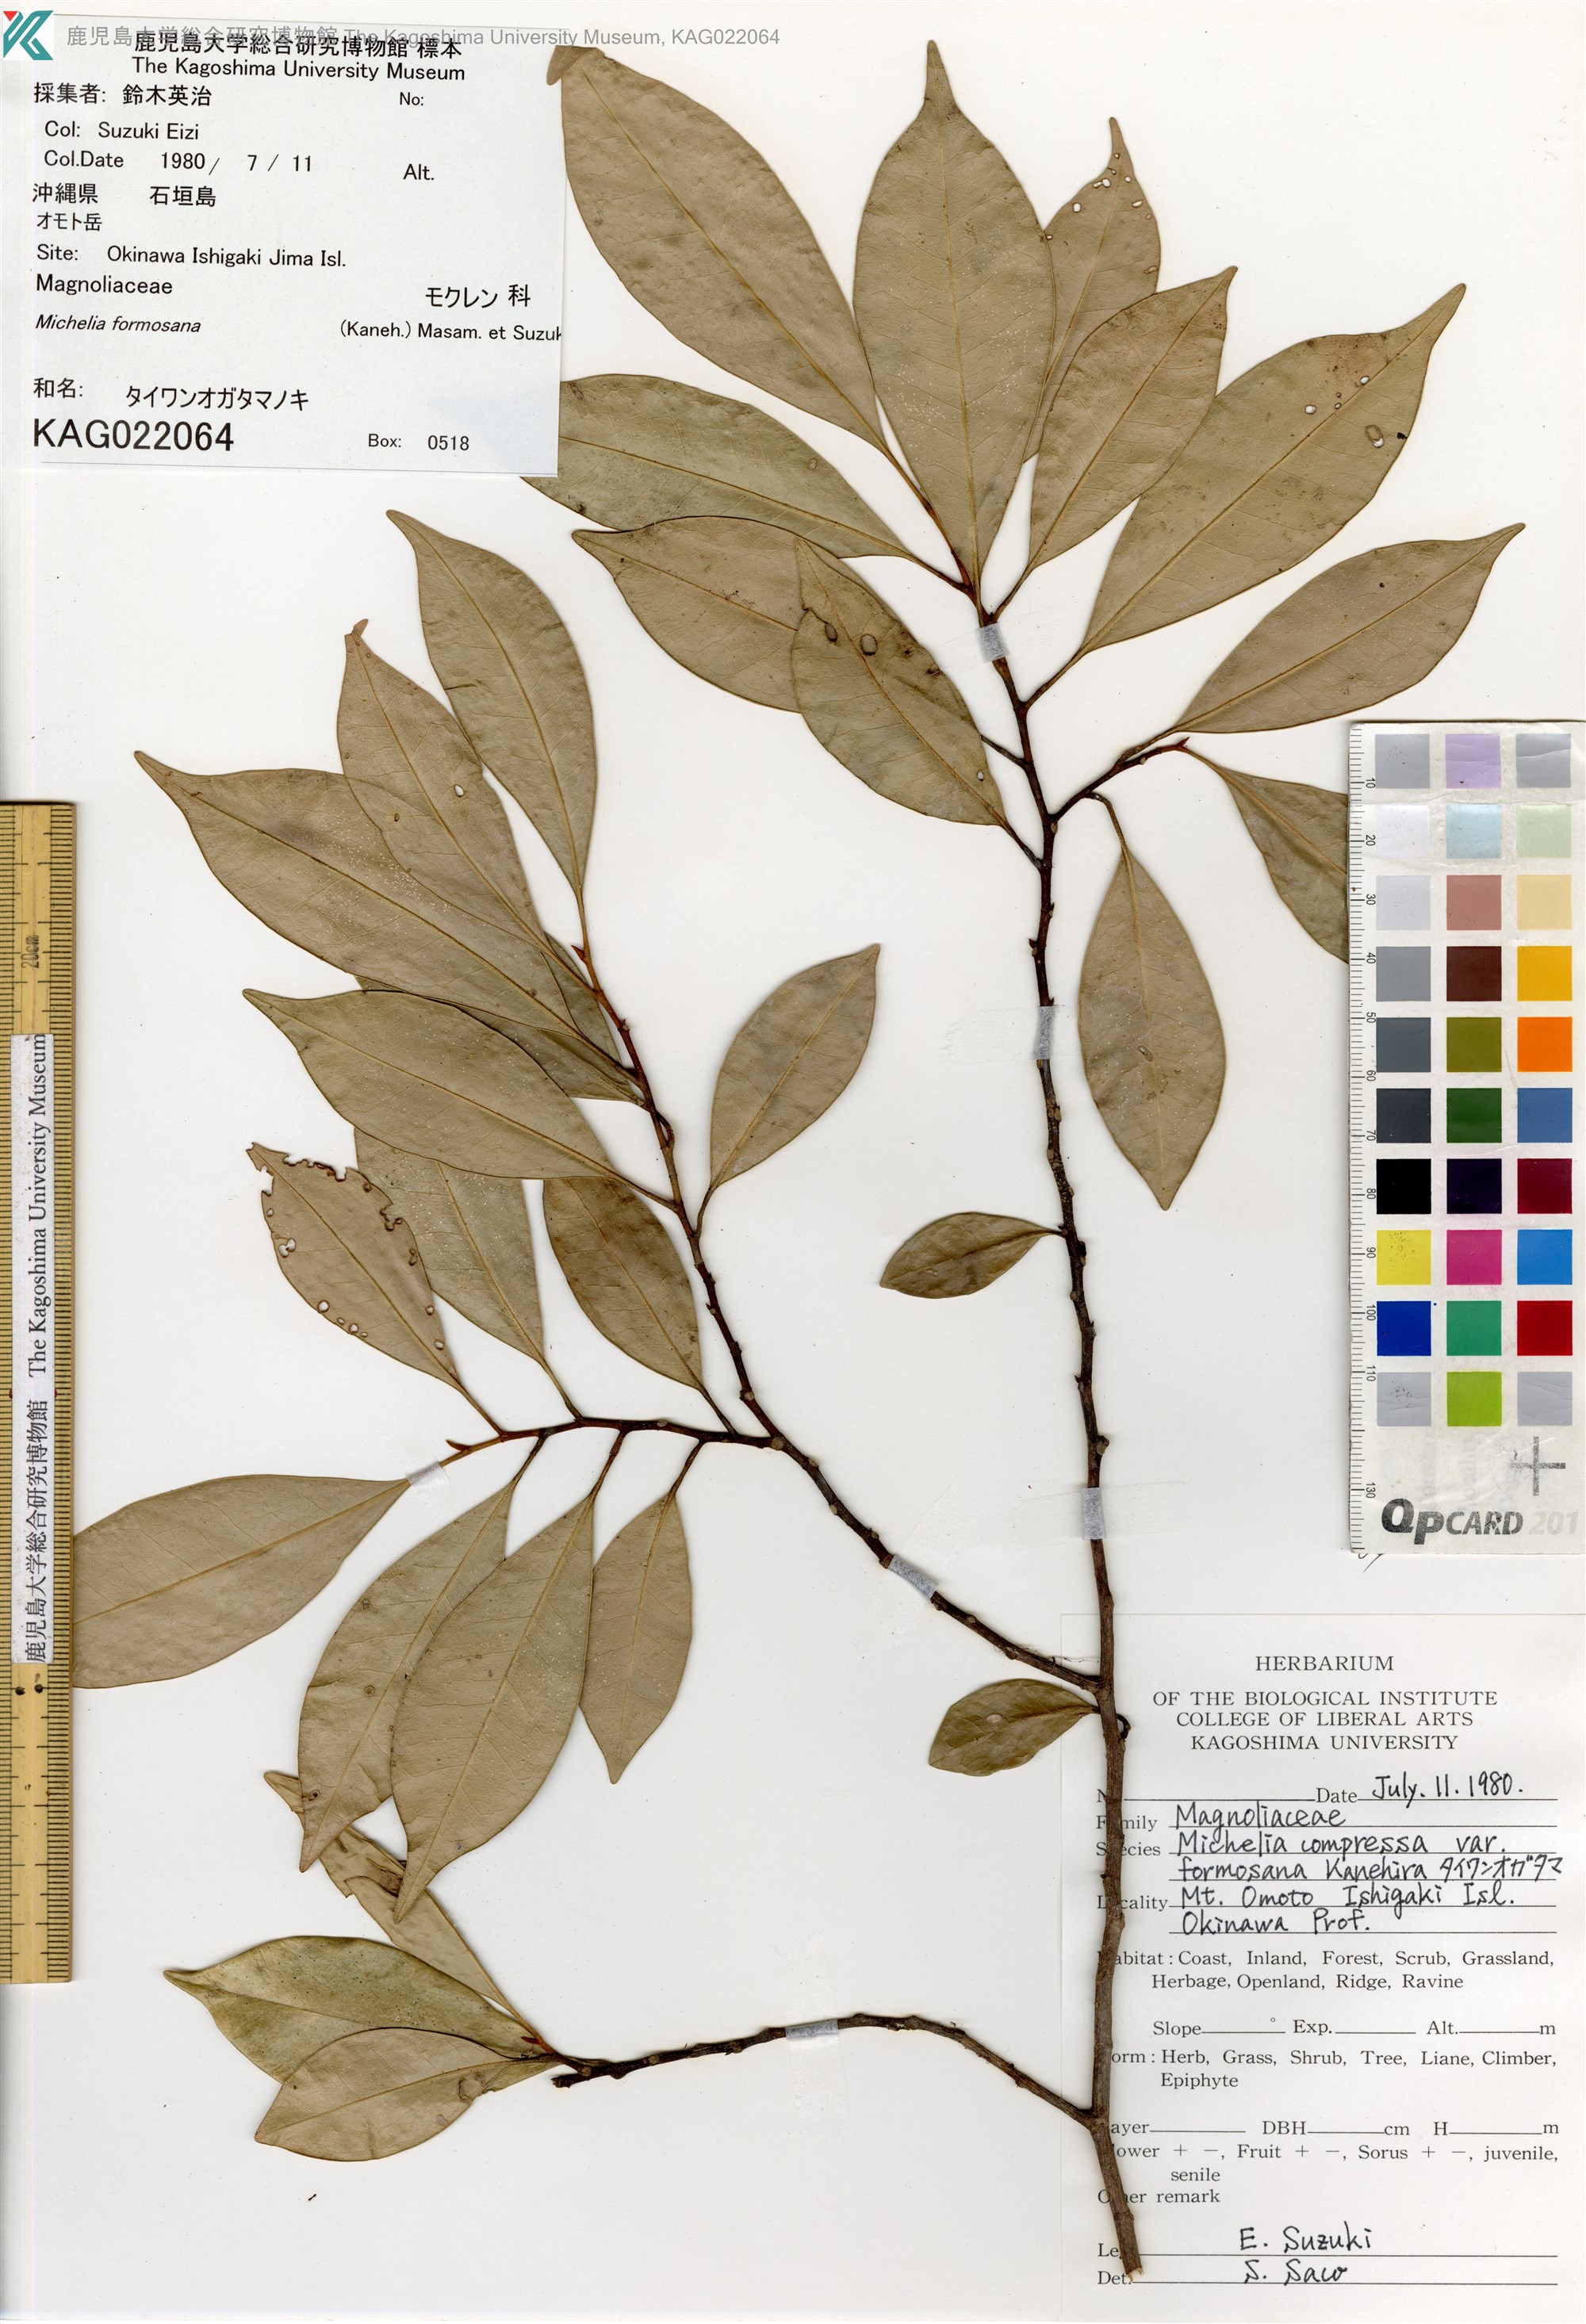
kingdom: Plantae
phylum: Tracheophyta
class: Magnoliopsida
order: Magnoliales
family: Magnoliaceae
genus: Magnolia
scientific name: Magnolia compressa
